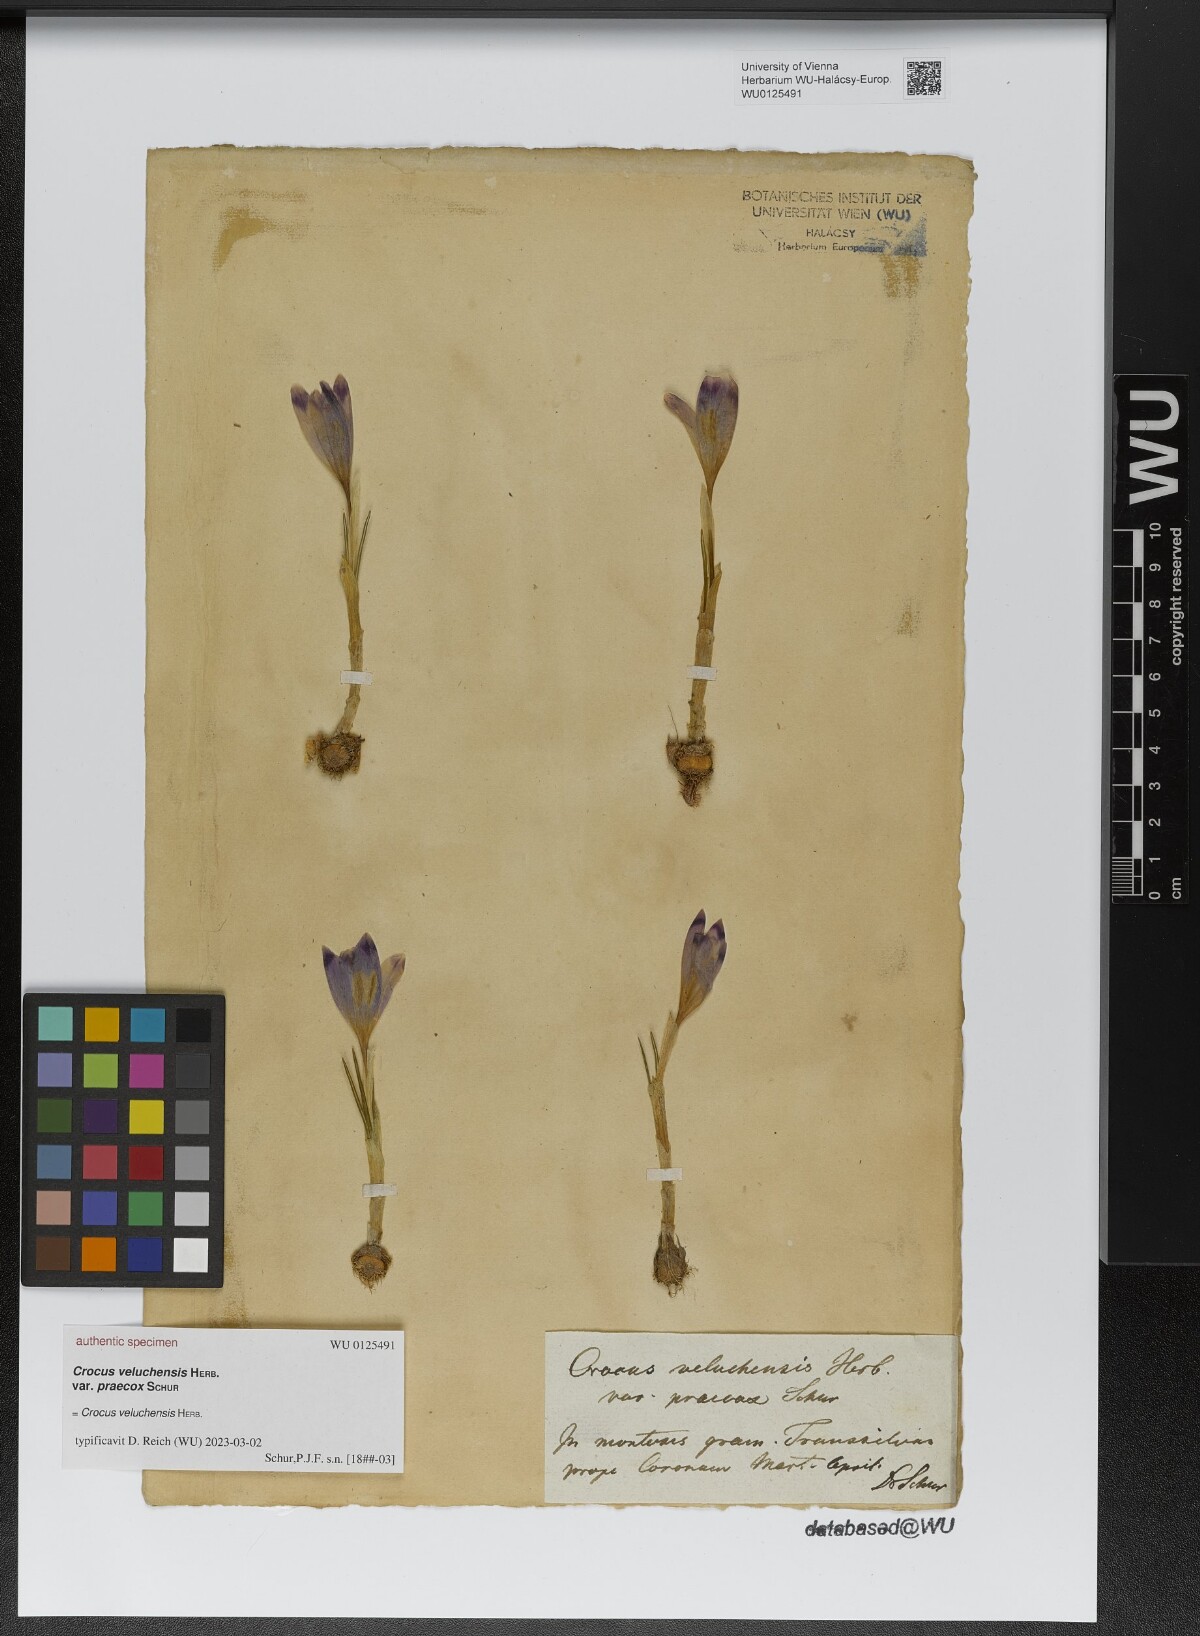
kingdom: Plantae
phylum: Tracheophyta
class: Liliopsida
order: Asparagales
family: Iridaceae
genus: Crocus
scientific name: Crocus veluchensis
